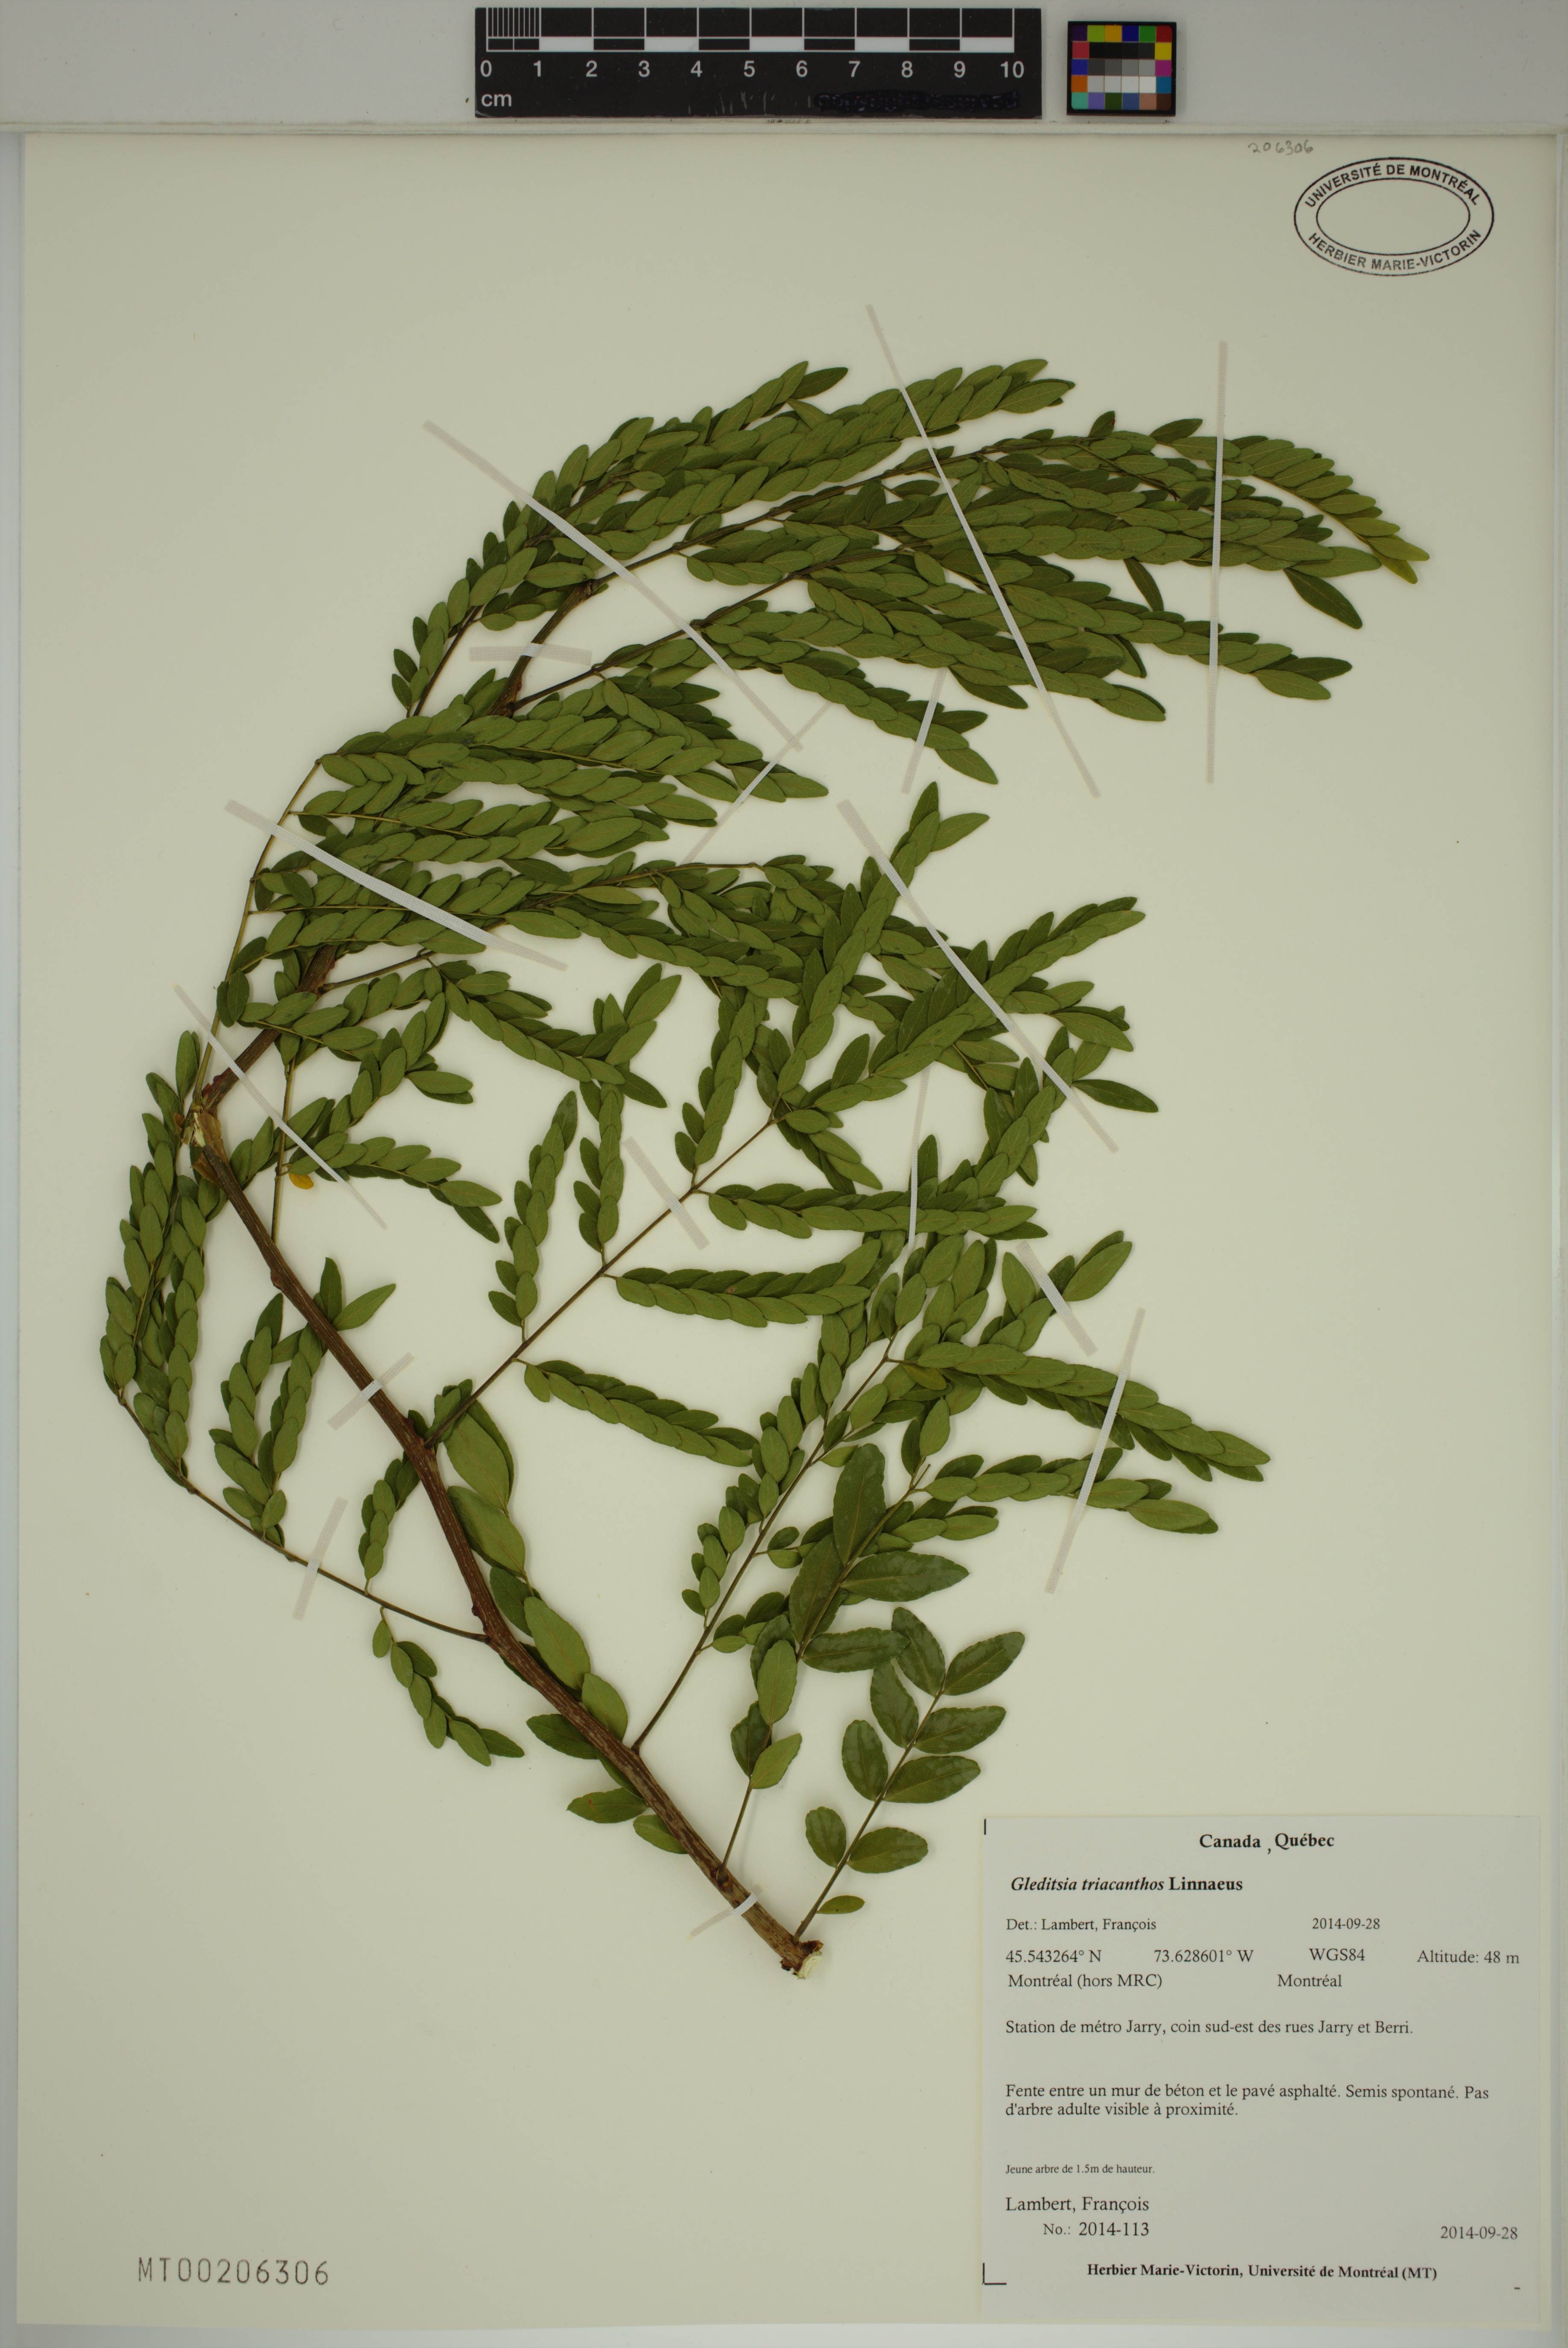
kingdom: Plantae
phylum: Tracheophyta
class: Magnoliopsida
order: Fabales
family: Fabaceae
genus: Gleditsia
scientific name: Gleditsia triacanthos
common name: Common honeylocust
